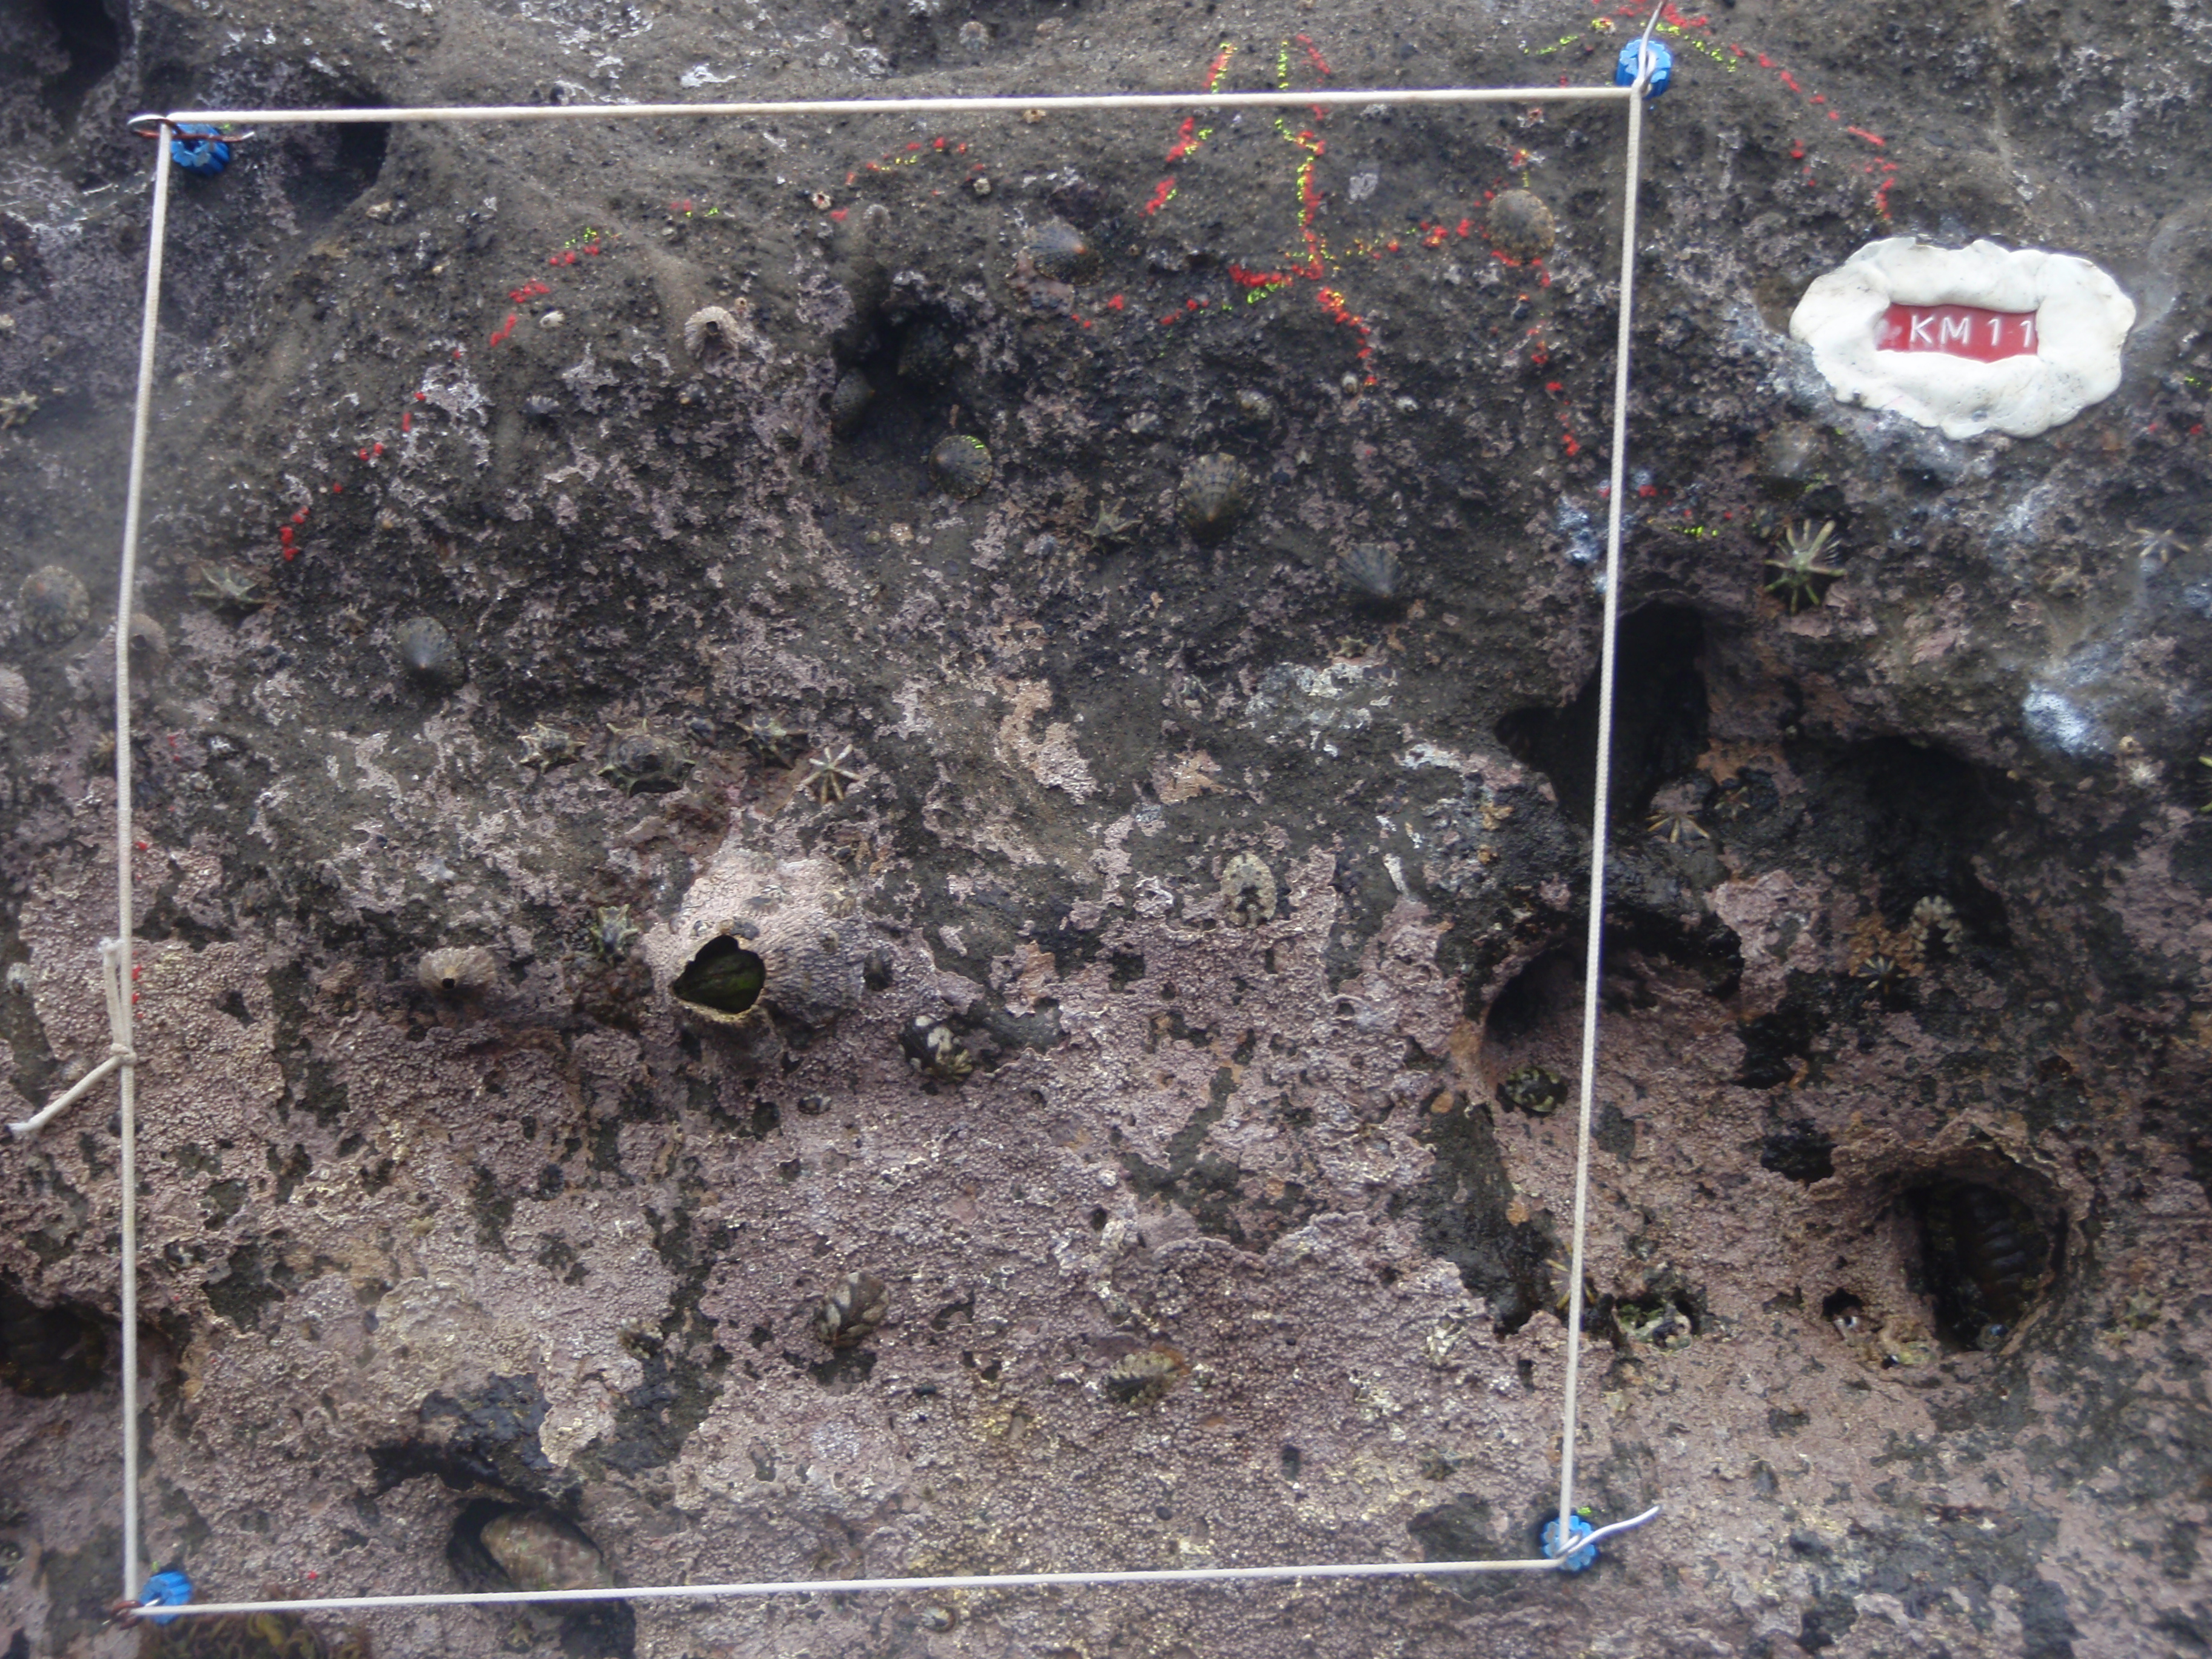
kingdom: Animalia
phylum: Arthropoda
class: Maxillopoda
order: Sessilia
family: Chthamalidae
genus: Chthamalus
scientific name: Chthamalus challengeri
